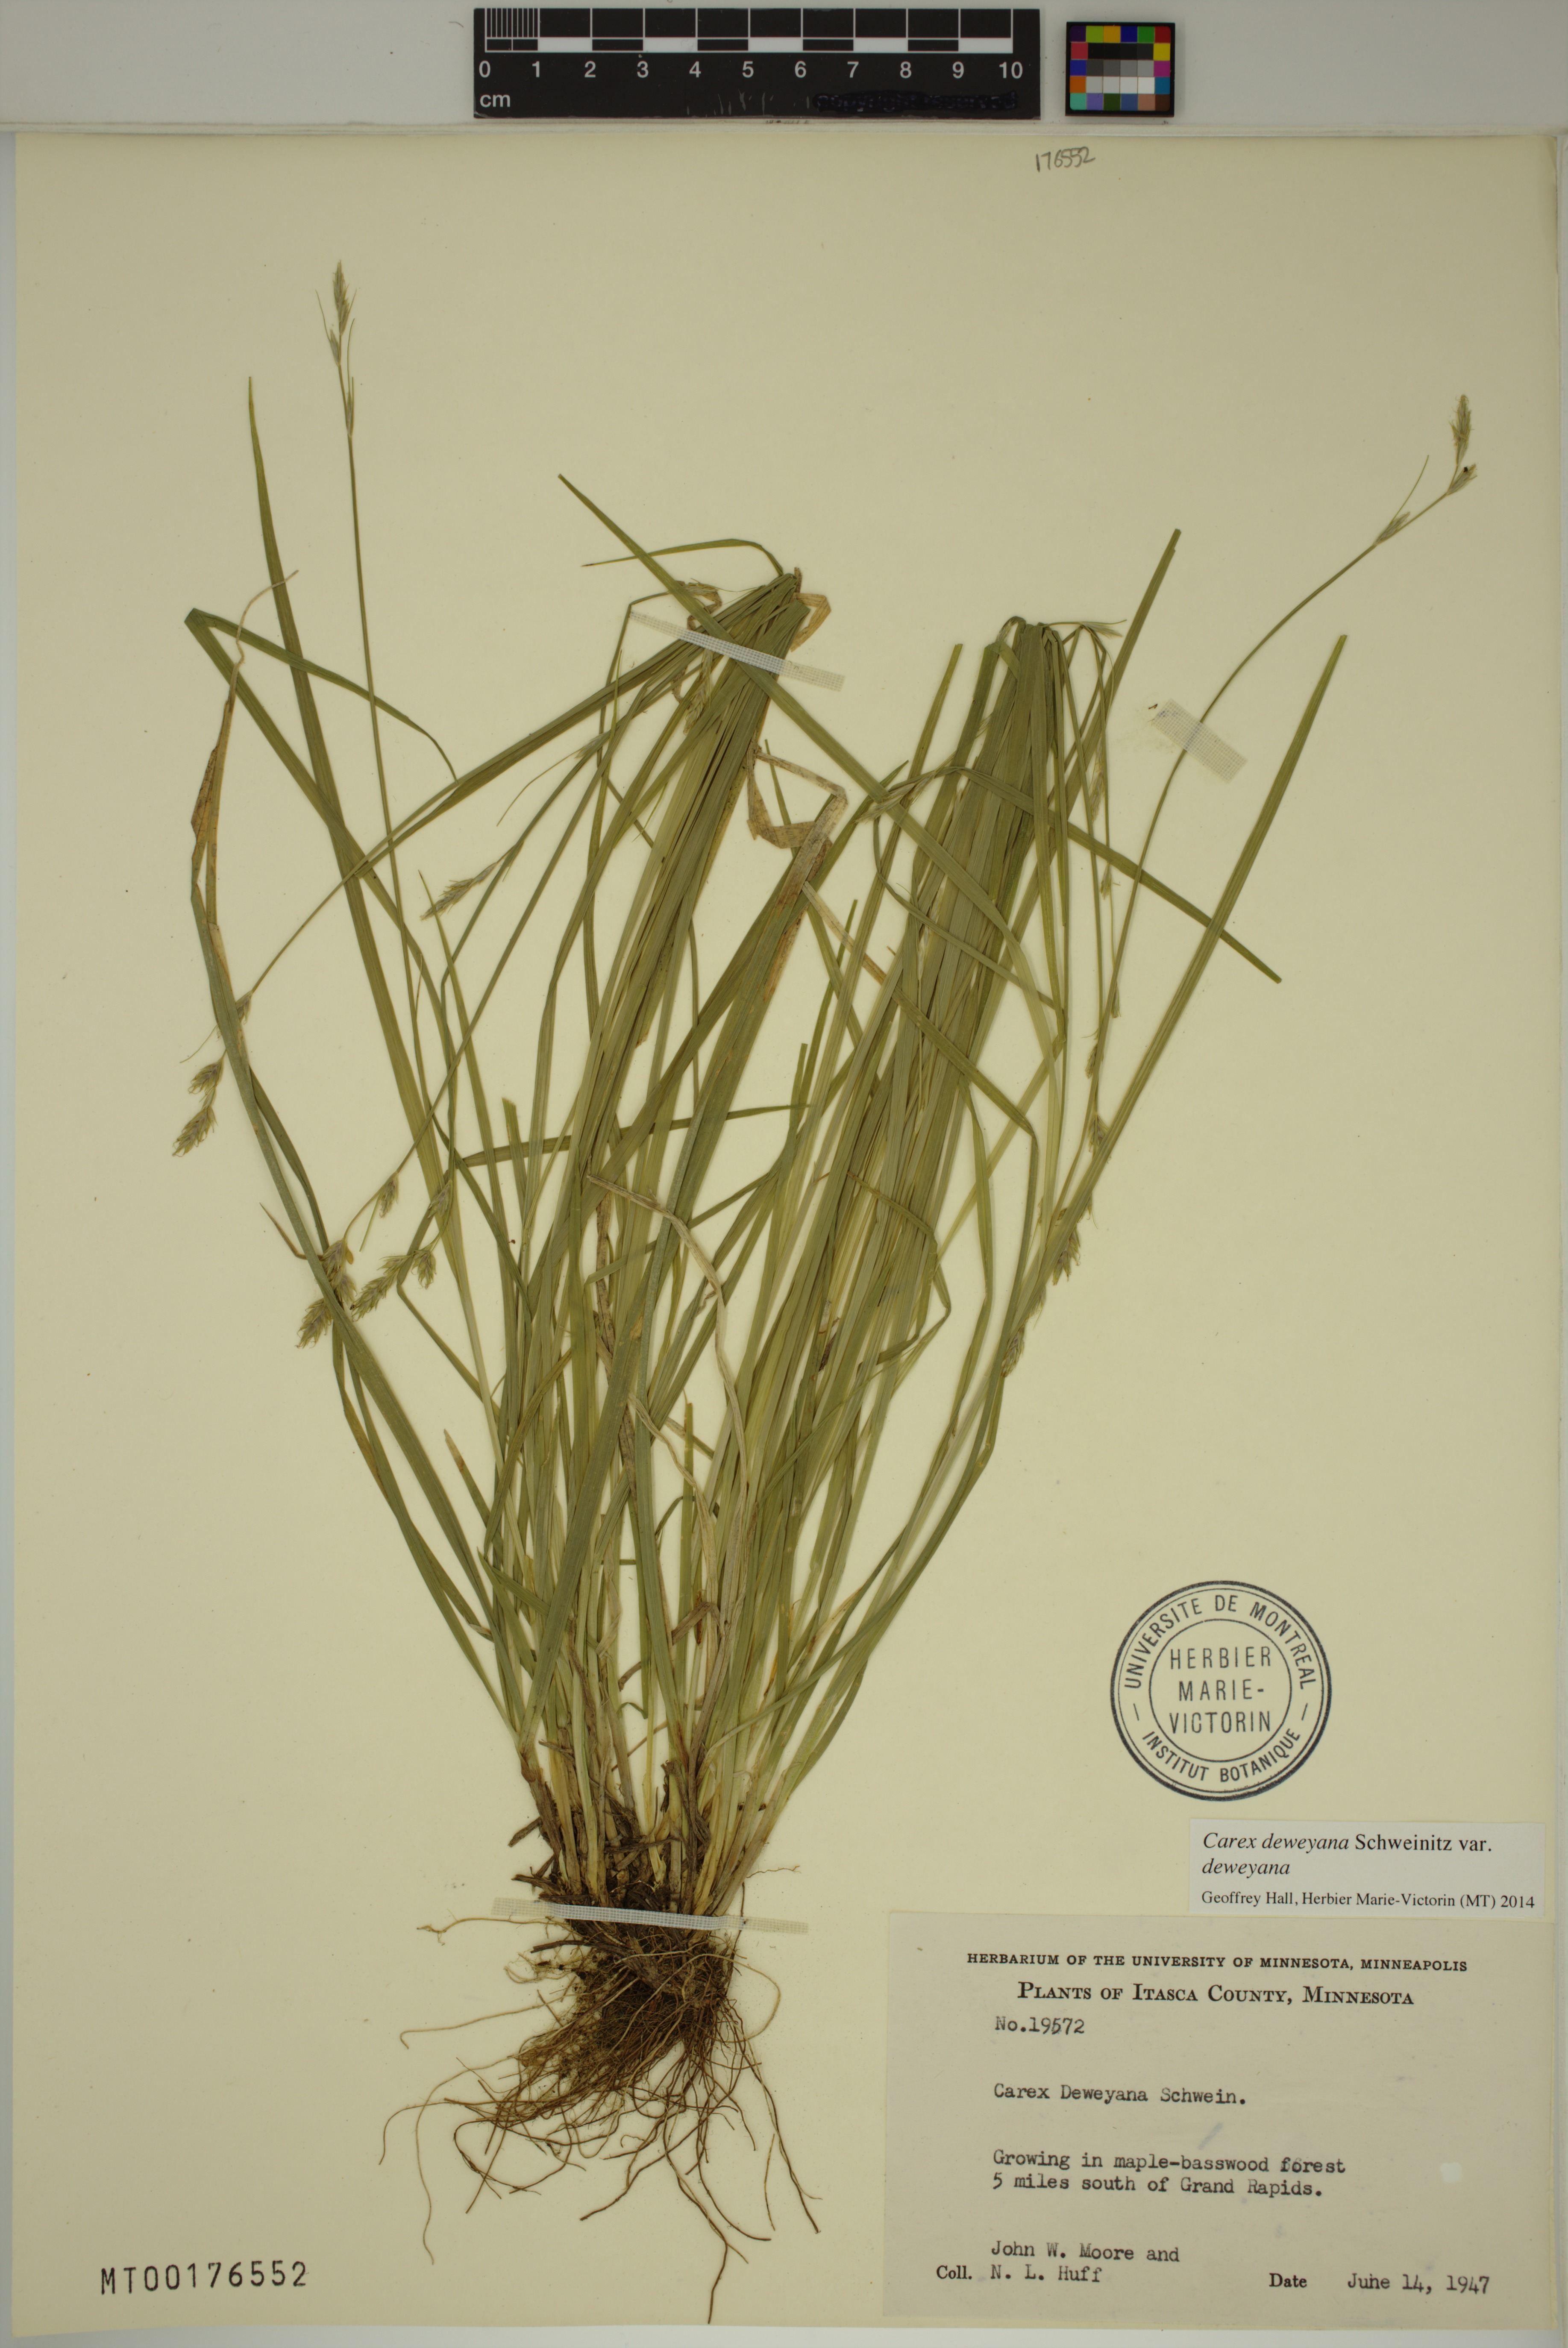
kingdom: Plantae
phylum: Tracheophyta
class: Liliopsida
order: Poales
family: Cyperaceae
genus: Carex
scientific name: Carex deweyana
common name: Dewey's sedge
